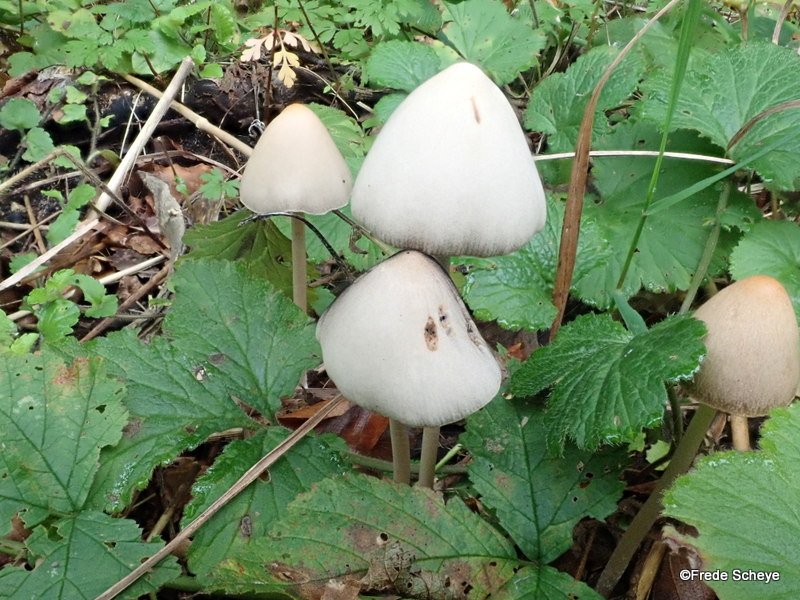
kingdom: Fungi
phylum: Basidiomycota
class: Agaricomycetes
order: Agaricales
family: Psathyrellaceae
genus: Parasola
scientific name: Parasola conopilea
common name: kegle-hjulhat
